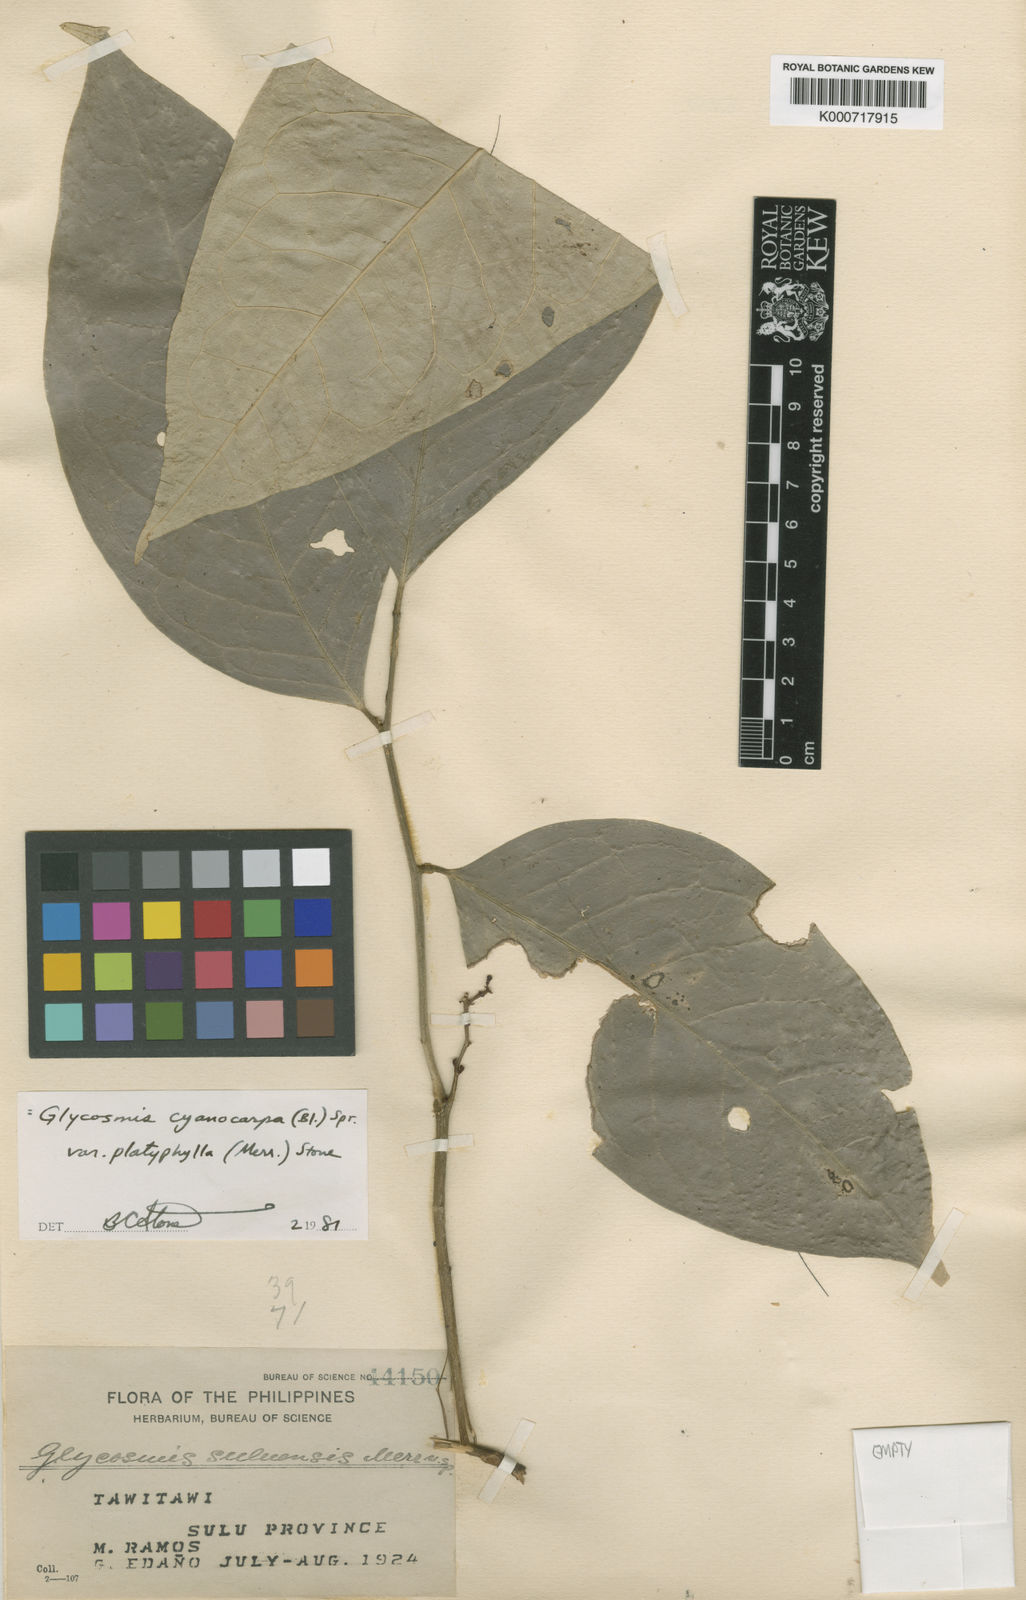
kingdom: Plantae
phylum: Tracheophyta
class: Magnoliopsida
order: Sapindales
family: Rutaceae
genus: Glycosmis
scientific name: Glycosmis cyanocarpa
